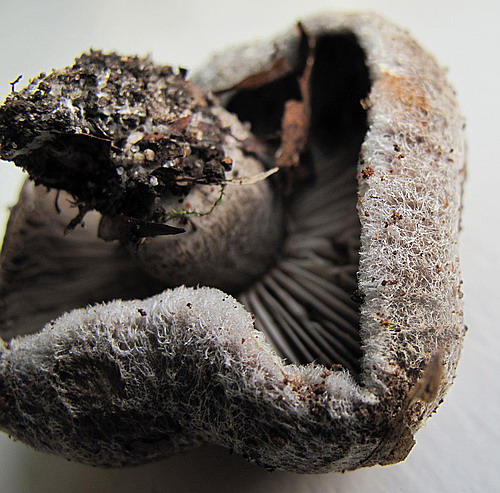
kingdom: Fungi
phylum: Basidiomycota
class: Agaricomycetes
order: Agaricales
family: Tricholomataceae
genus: Tricholoma
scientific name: Tricholoma atrosquamosum
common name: sortskællet ridderhat
